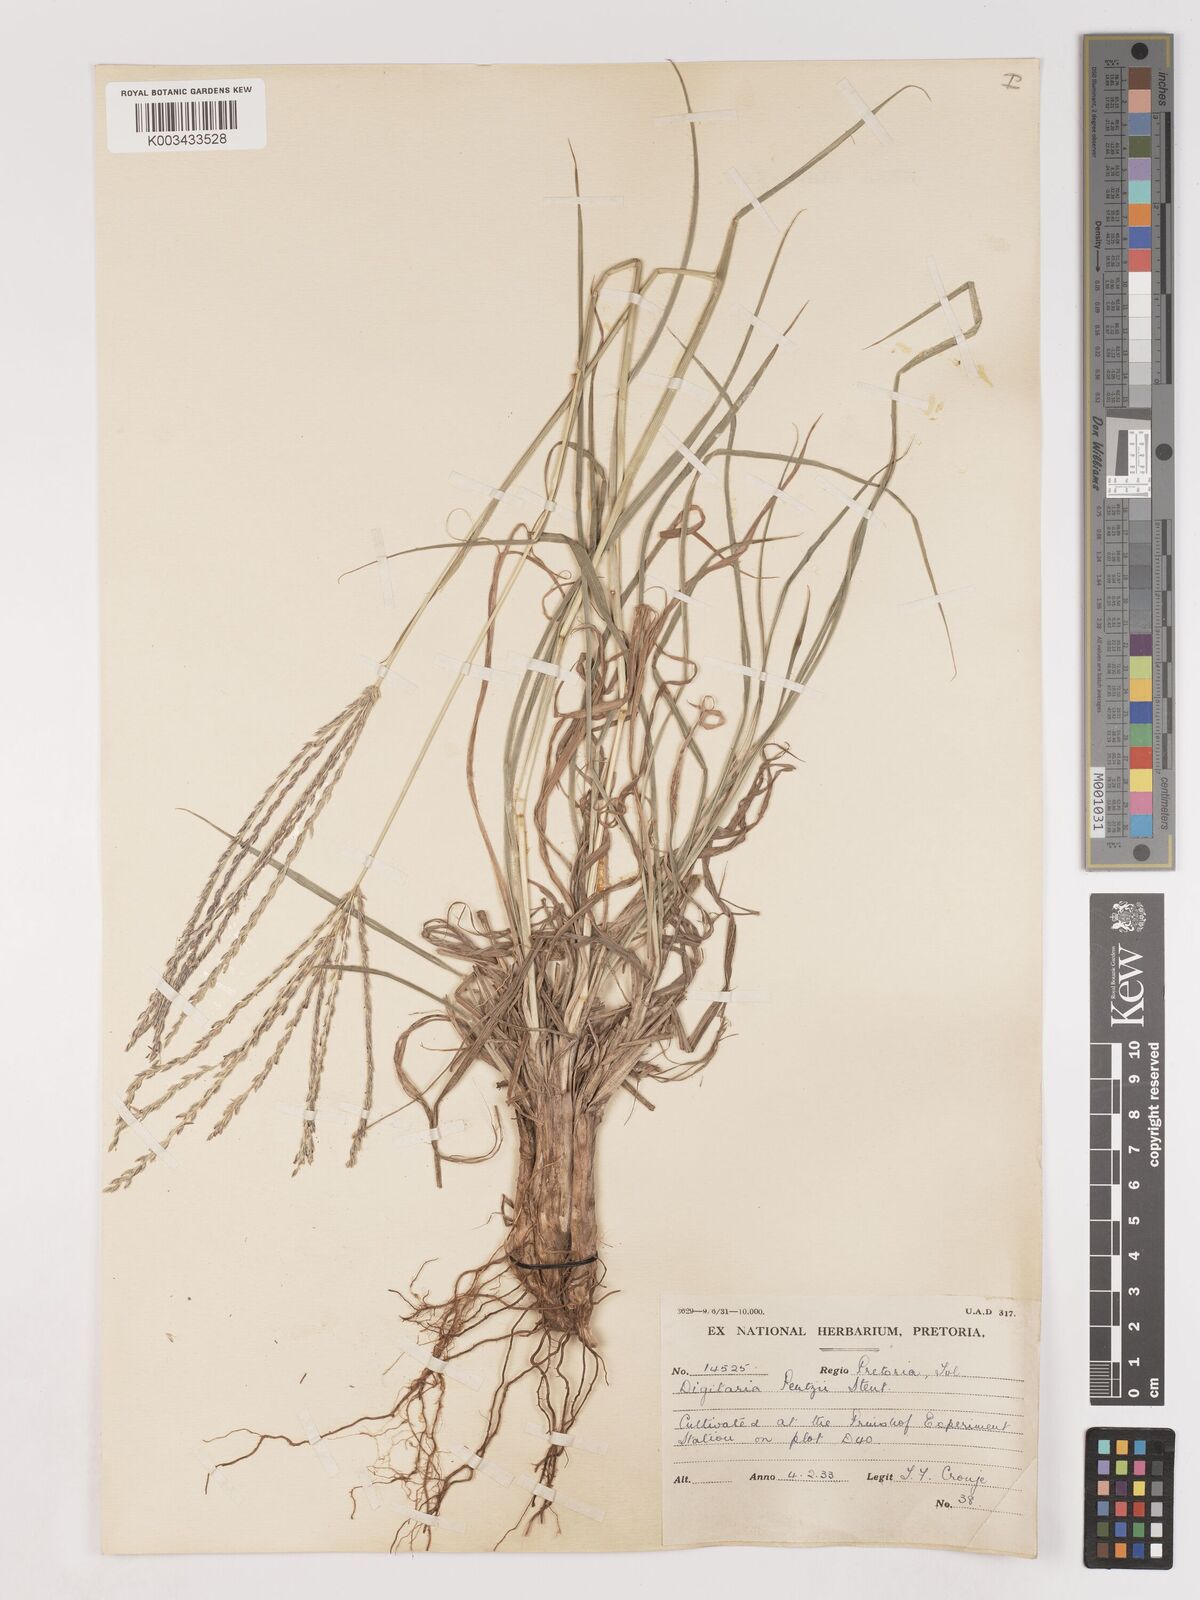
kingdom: Plantae
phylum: Tracheophyta
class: Liliopsida
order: Poales
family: Poaceae
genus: Digitaria
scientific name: Digitaria eriantha
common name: Digitgrass
